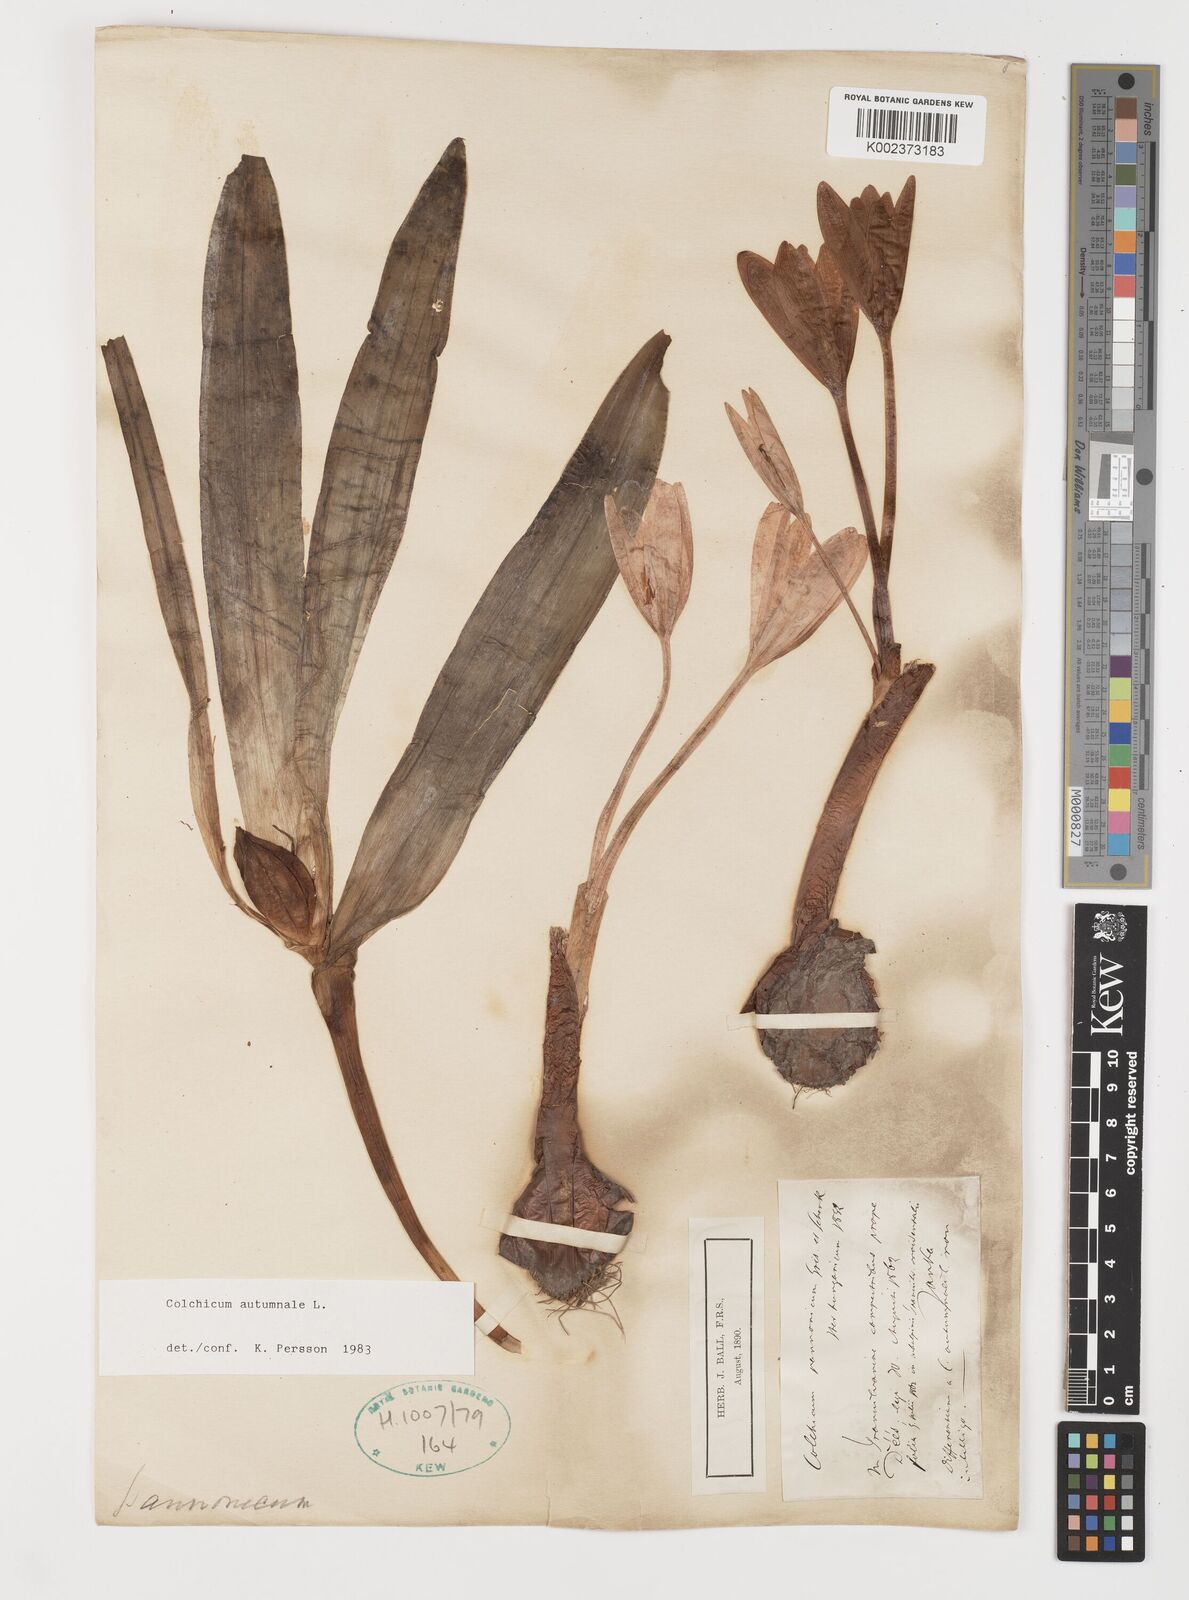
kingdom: Plantae
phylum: Tracheophyta
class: Liliopsida
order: Liliales
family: Colchicaceae
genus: Colchicum
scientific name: Colchicum autumnale
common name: Autumn crocus
